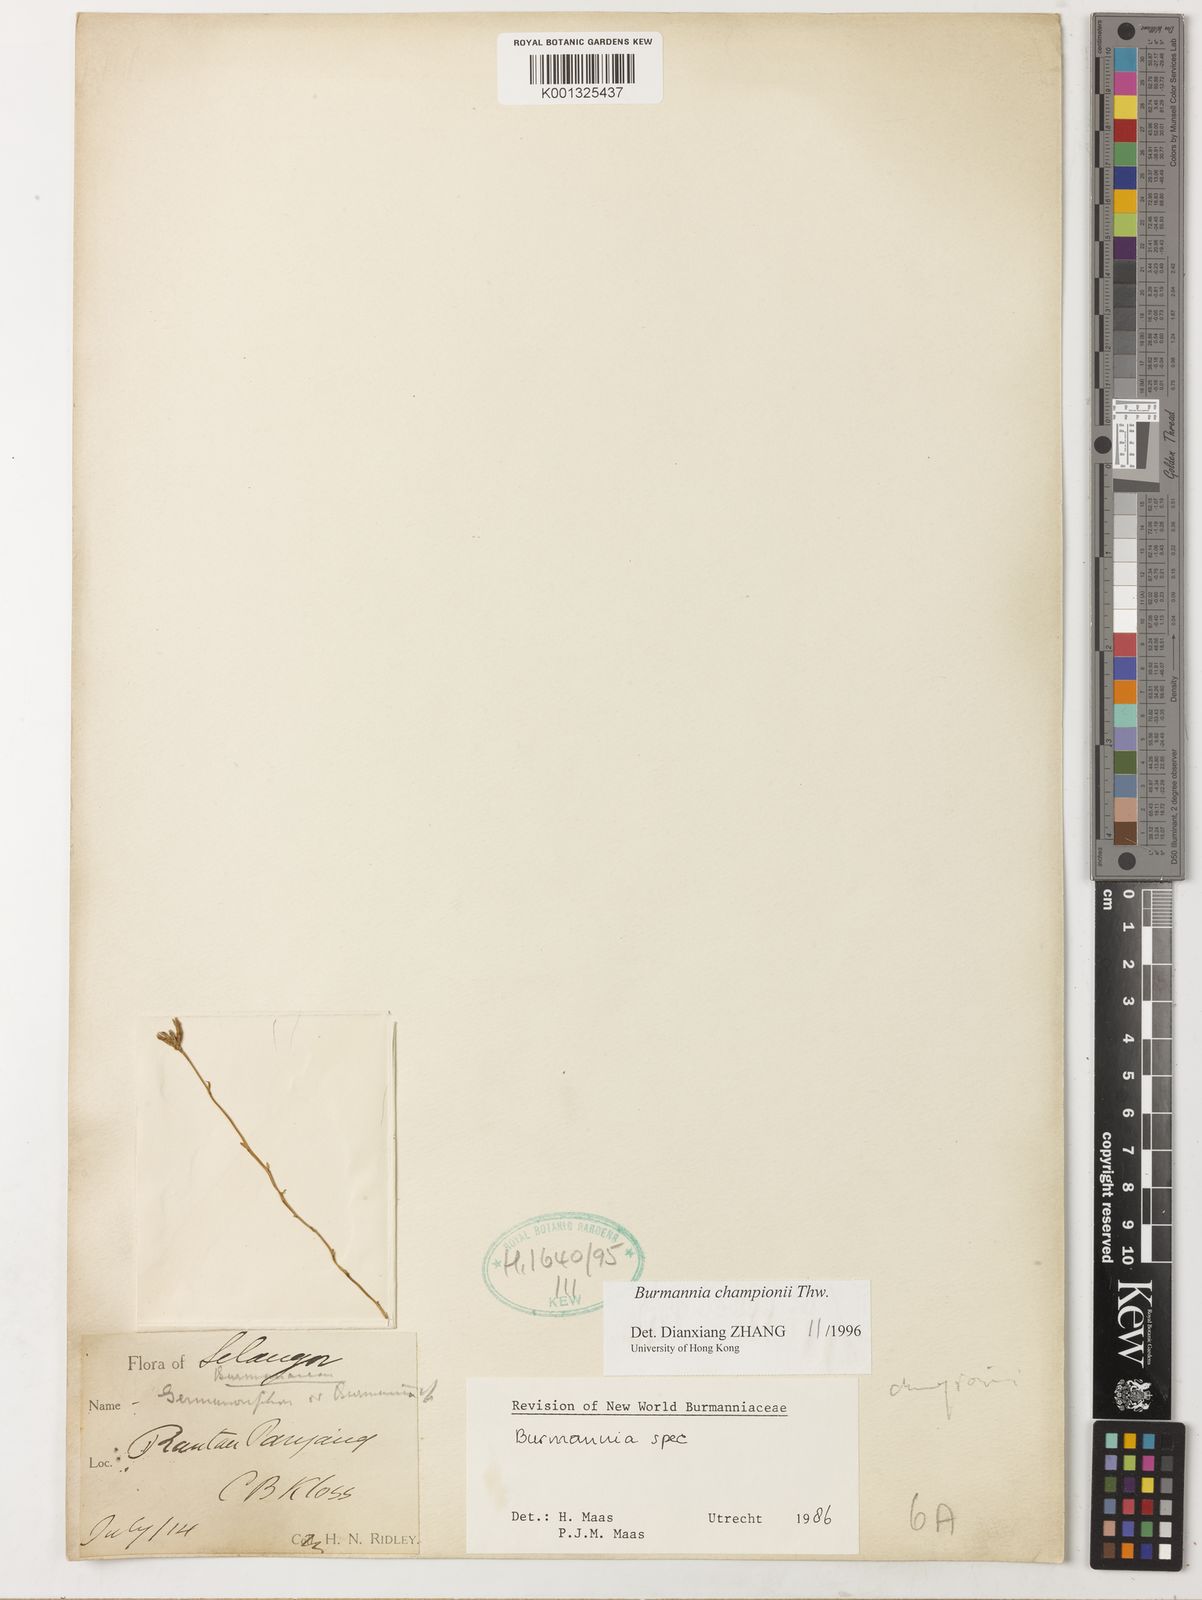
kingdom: Plantae
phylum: Tracheophyta
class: Liliopsida
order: Dioscoreales
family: Burmanniaceae
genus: Burmannia
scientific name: Burmannia championii
